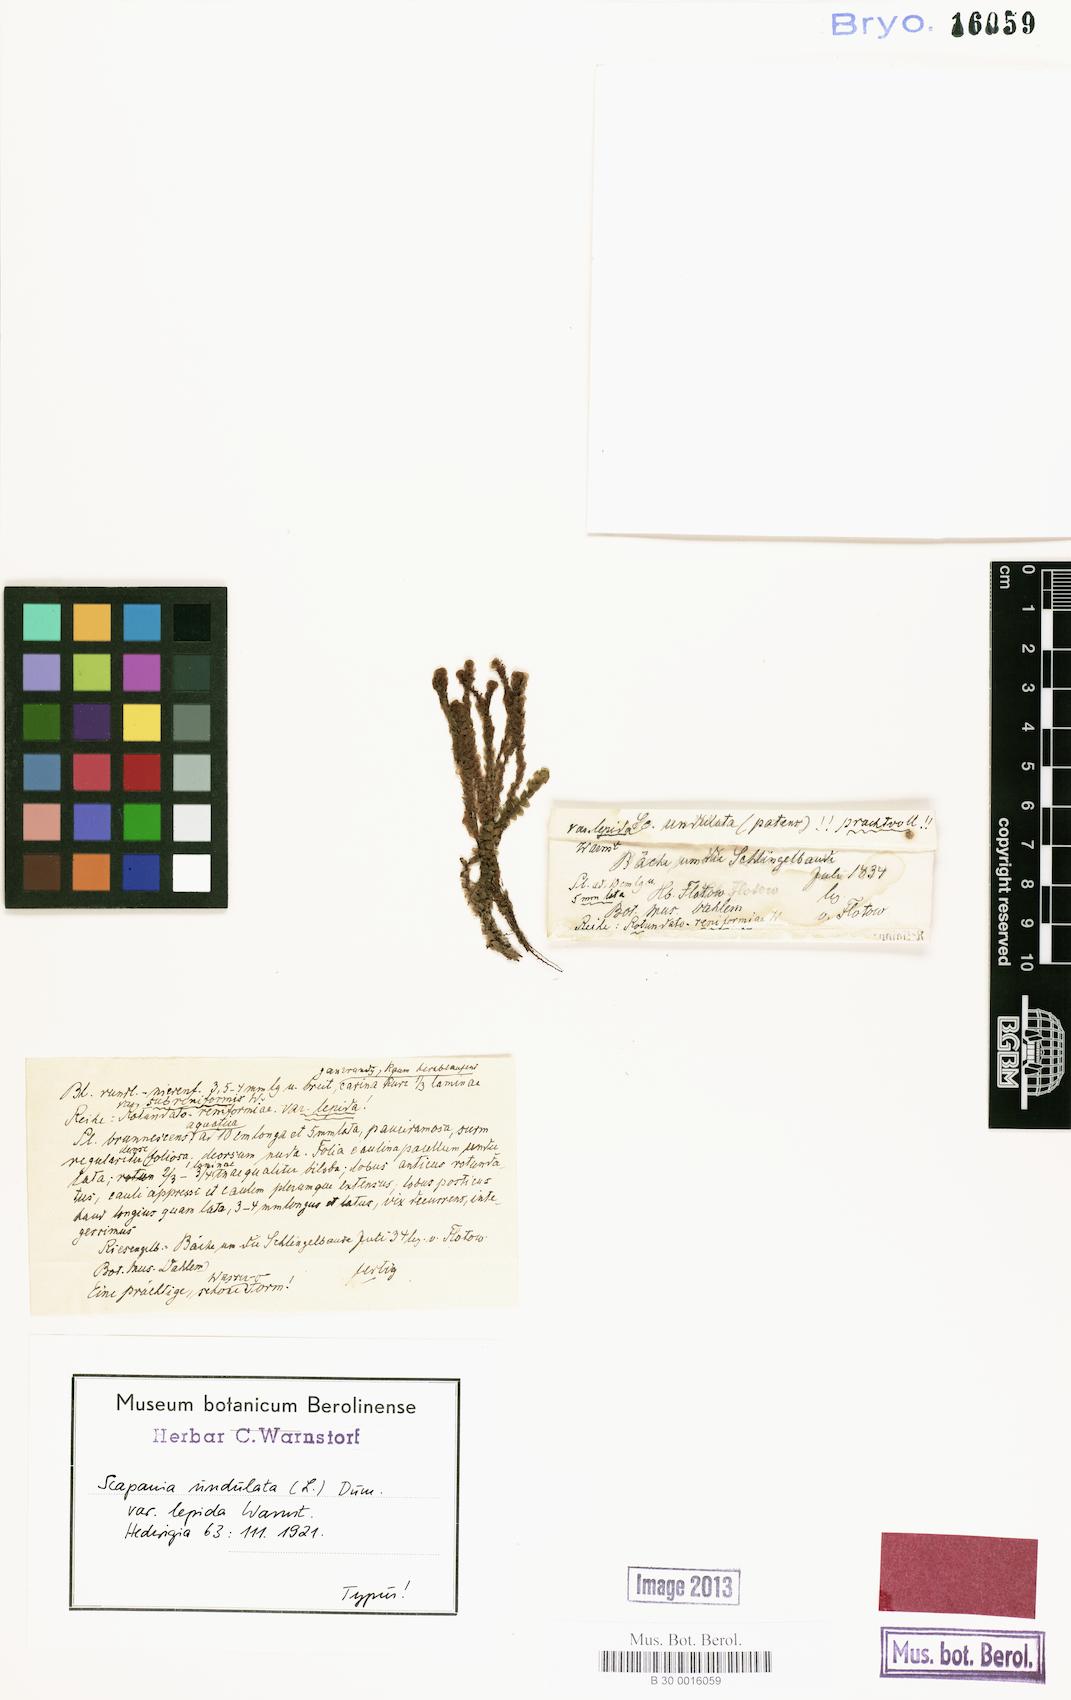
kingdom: Plantae
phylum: Marchantiophyta
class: Jungermanniopsida
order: Jungermanniales
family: Scapaniaceae
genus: Scapania
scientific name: Scapania undulata
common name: Water earwort
